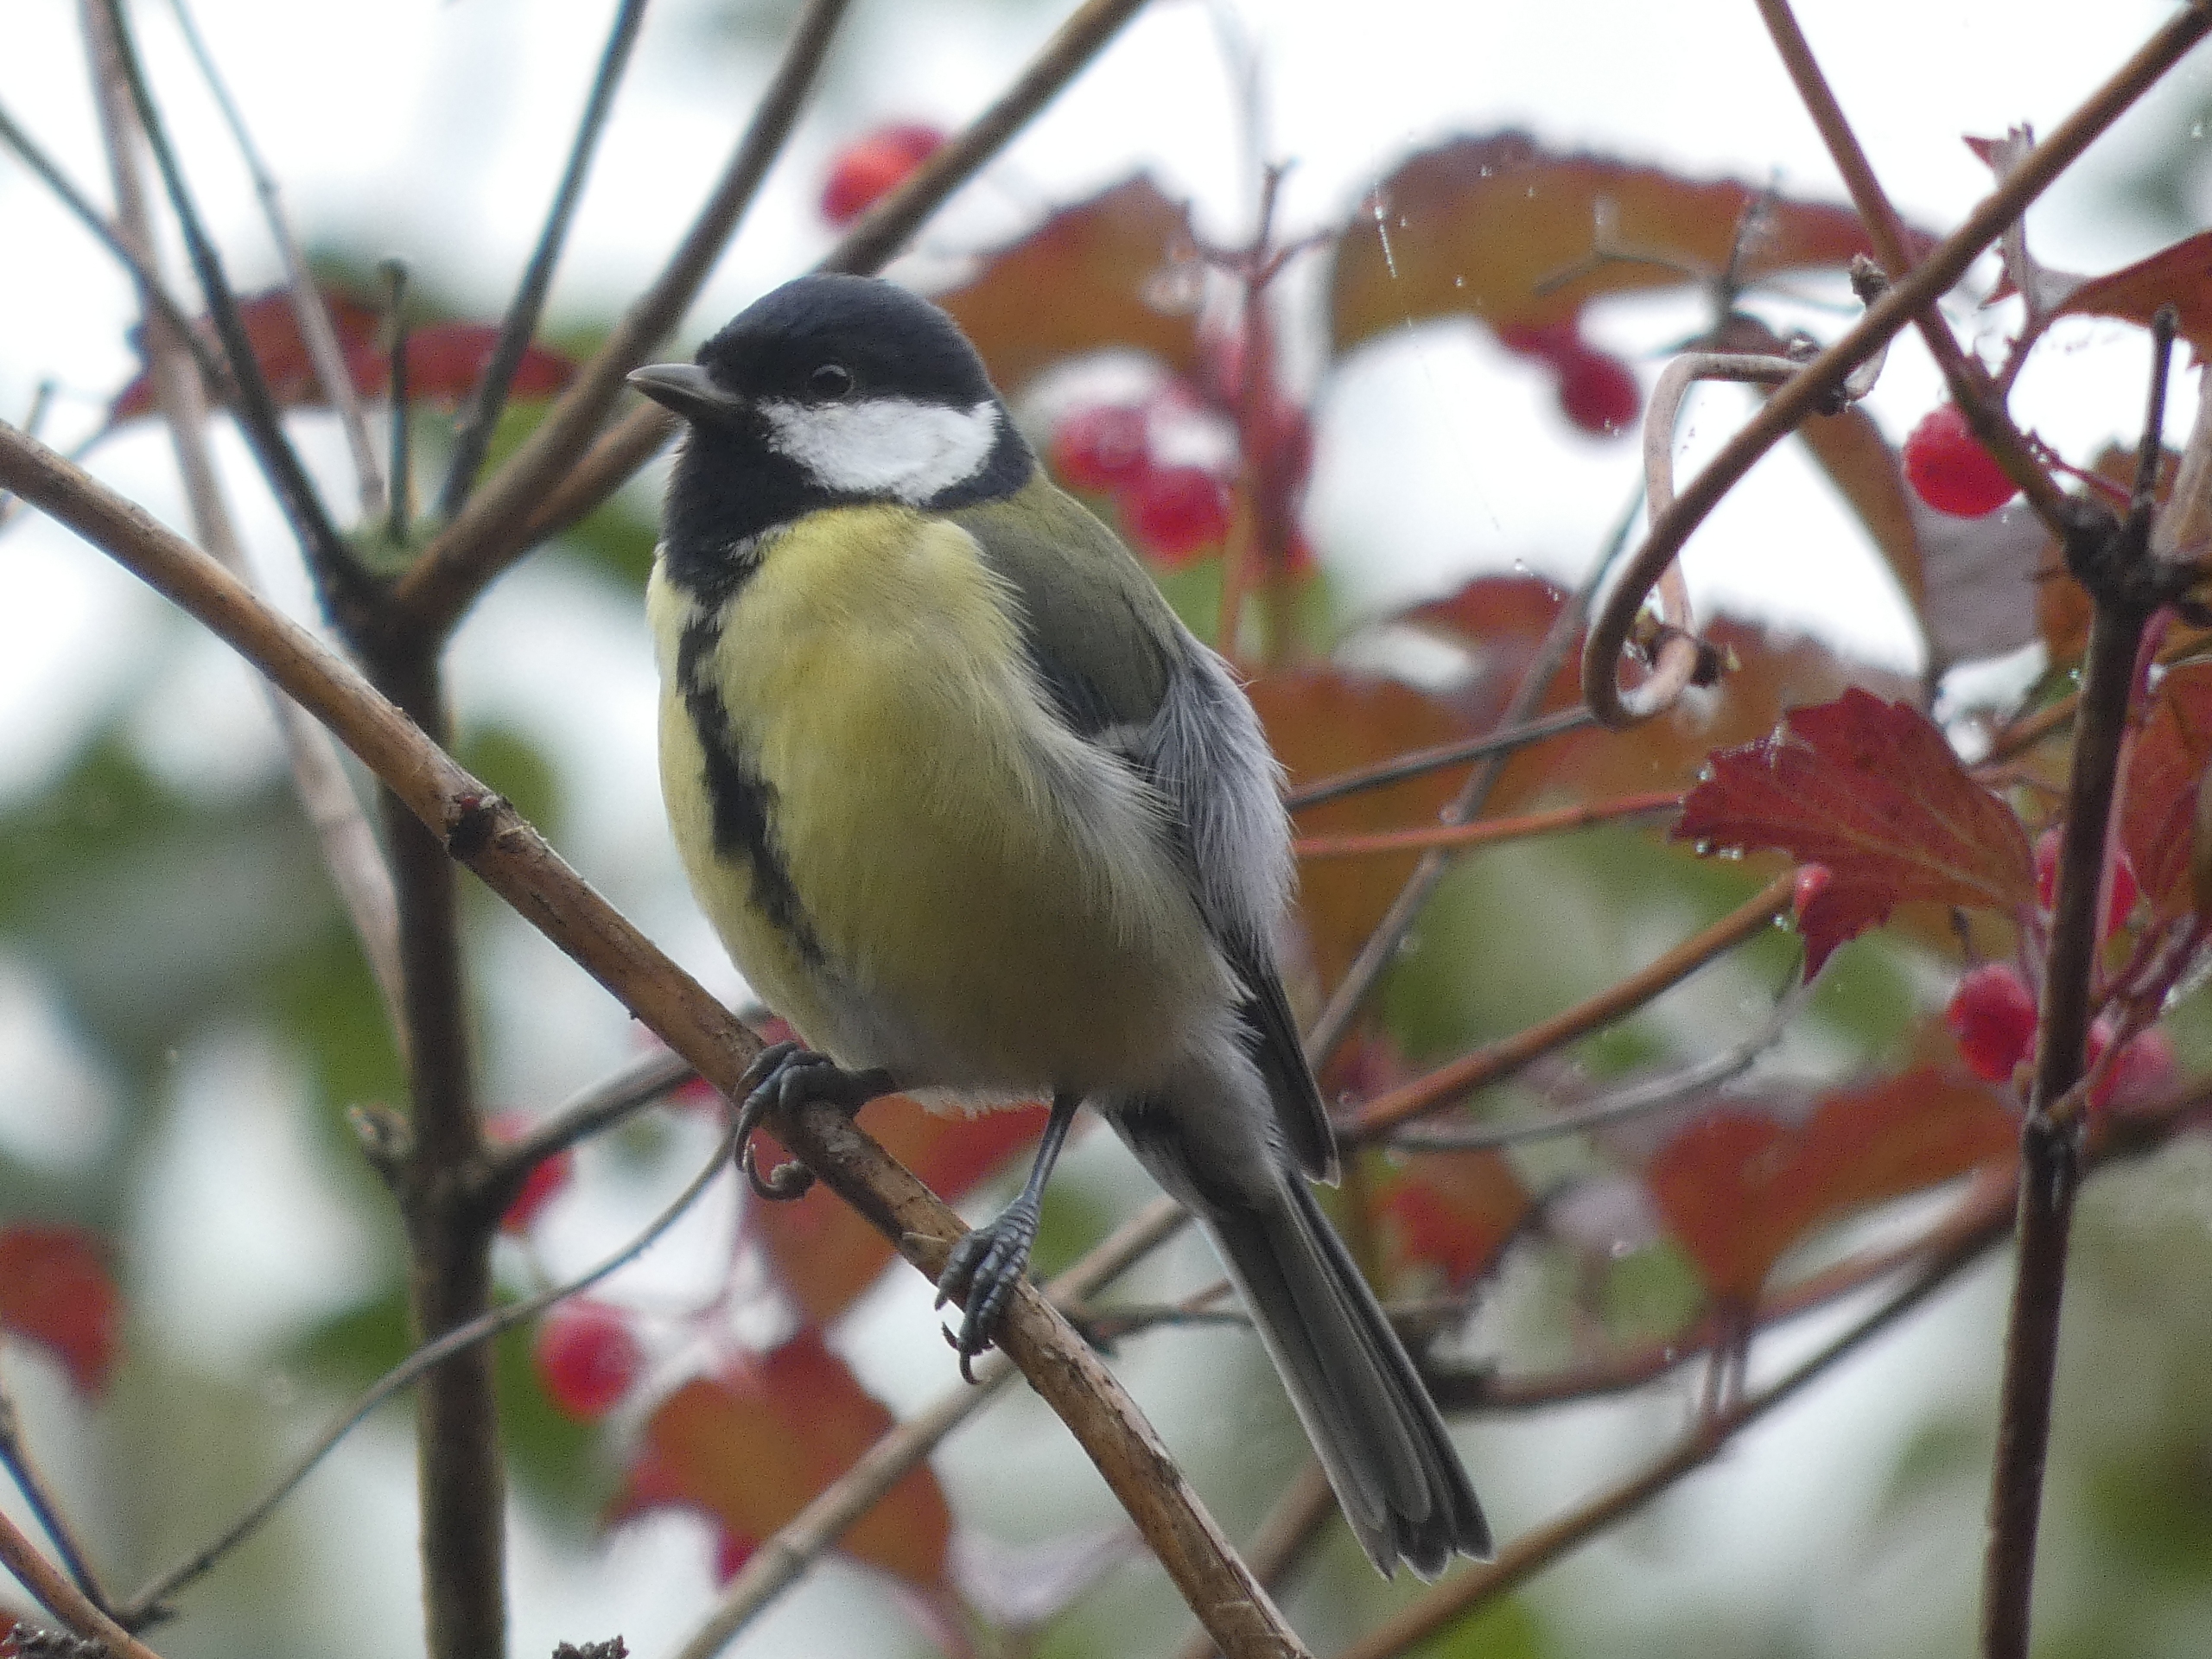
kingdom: Animalia
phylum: Chordata
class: Aves
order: Passeriformes
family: Paridae
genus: Parus
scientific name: Parus major
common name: Musvit
